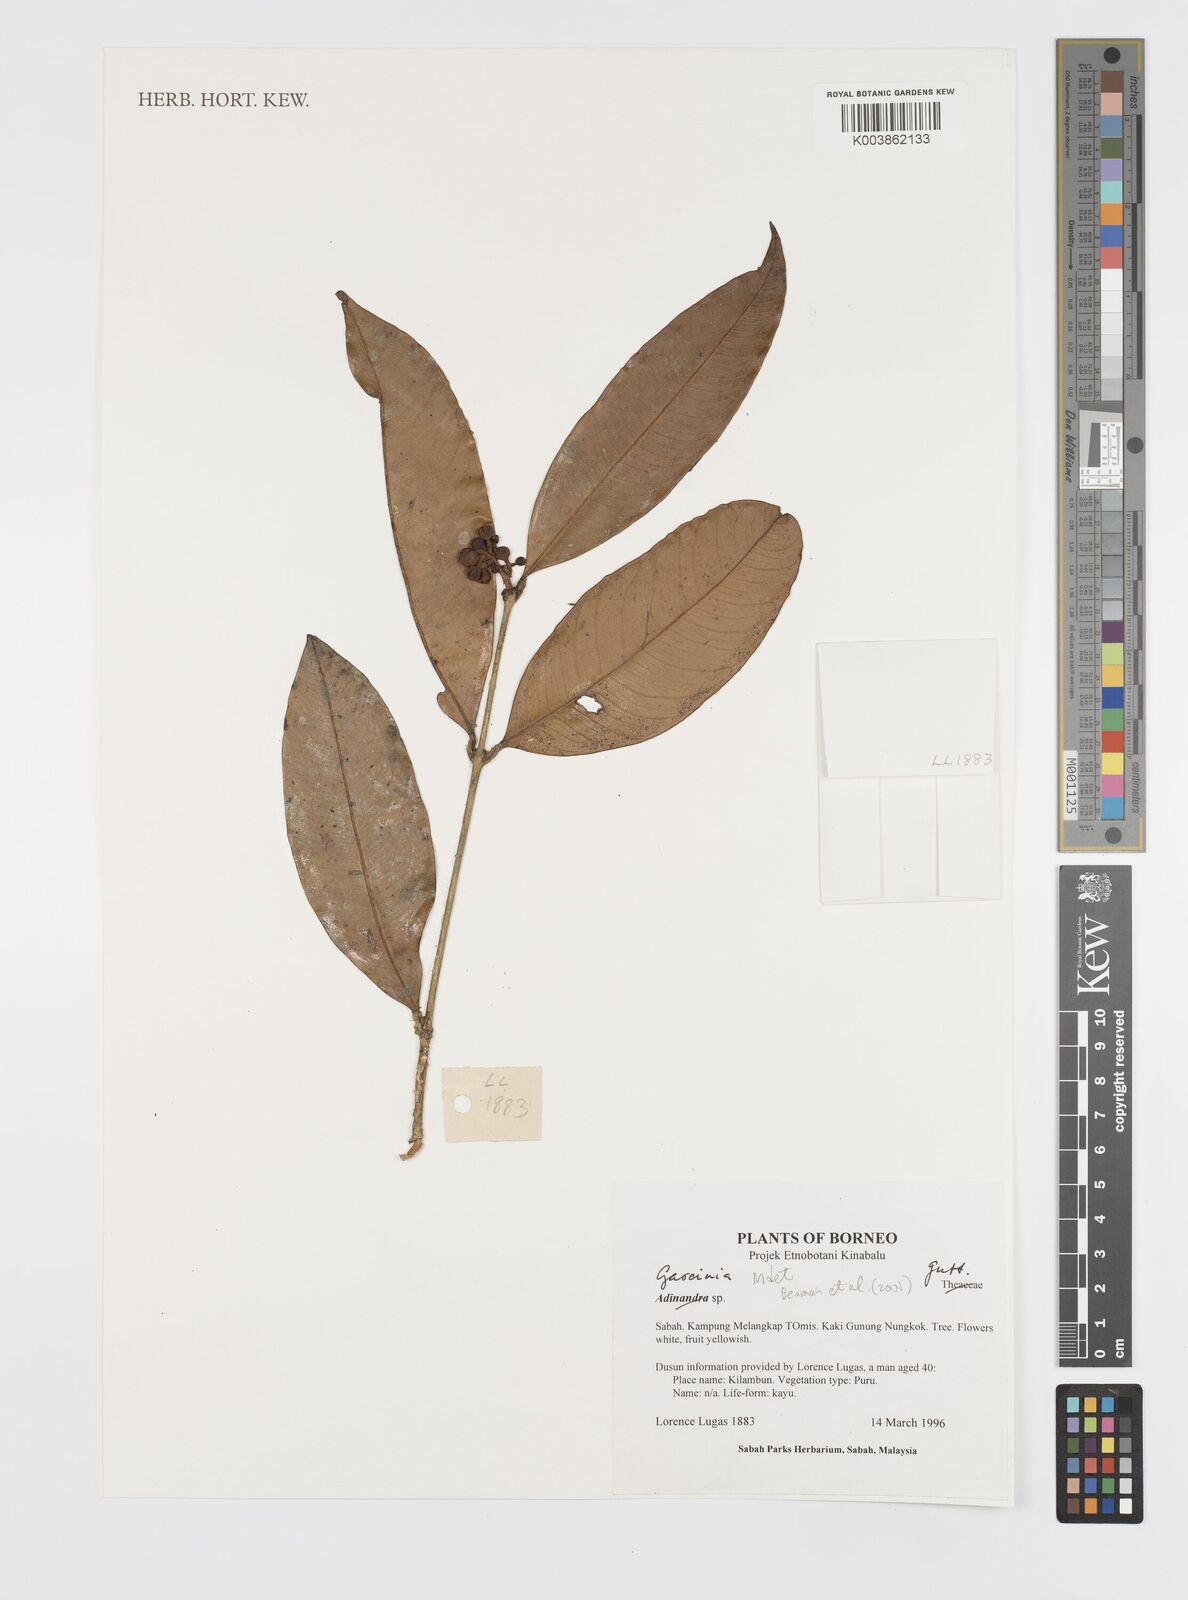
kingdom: Plantae
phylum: Tracheophyta
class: Magnoliopsida
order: Malpighiales
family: Clusiaceae
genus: Garcinia
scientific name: Garcinia
